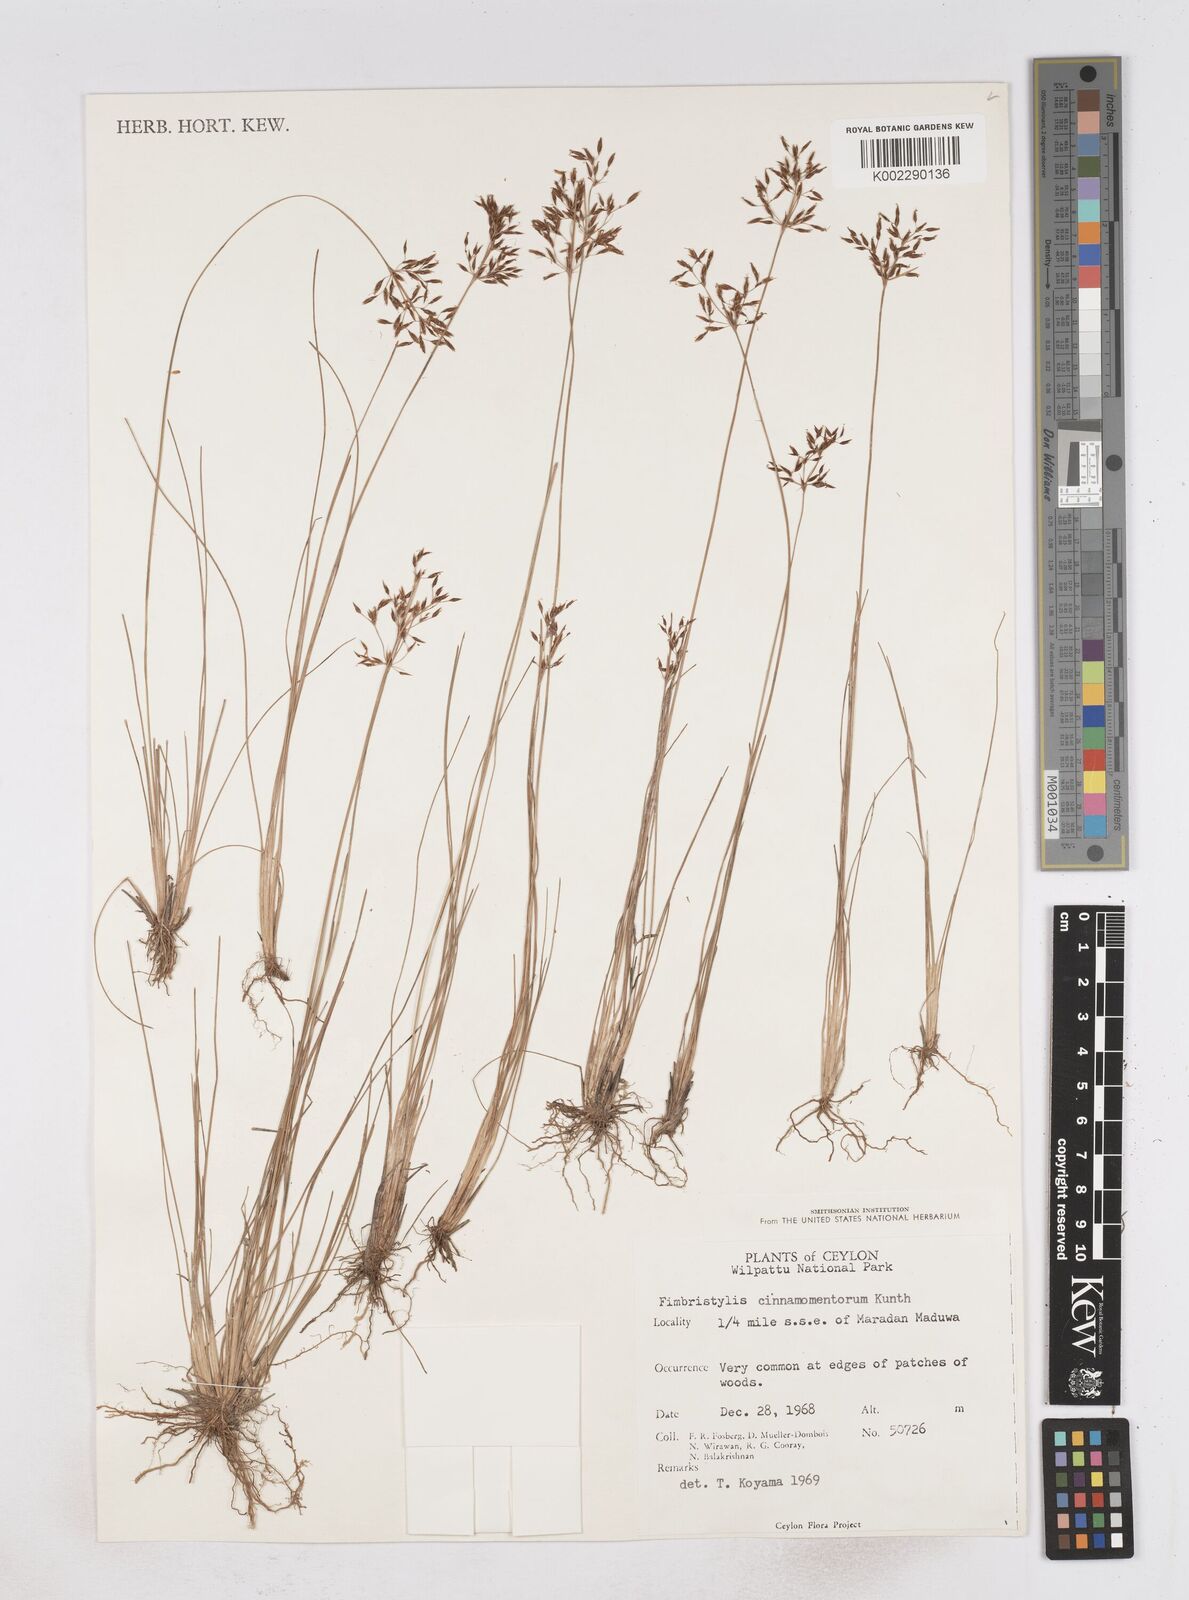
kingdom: Plantae
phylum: Tracheophyta
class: Liliopsida
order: Poales
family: Cyperaceae
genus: Fimbristylis
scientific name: Fimbristylis cinnamometorum
